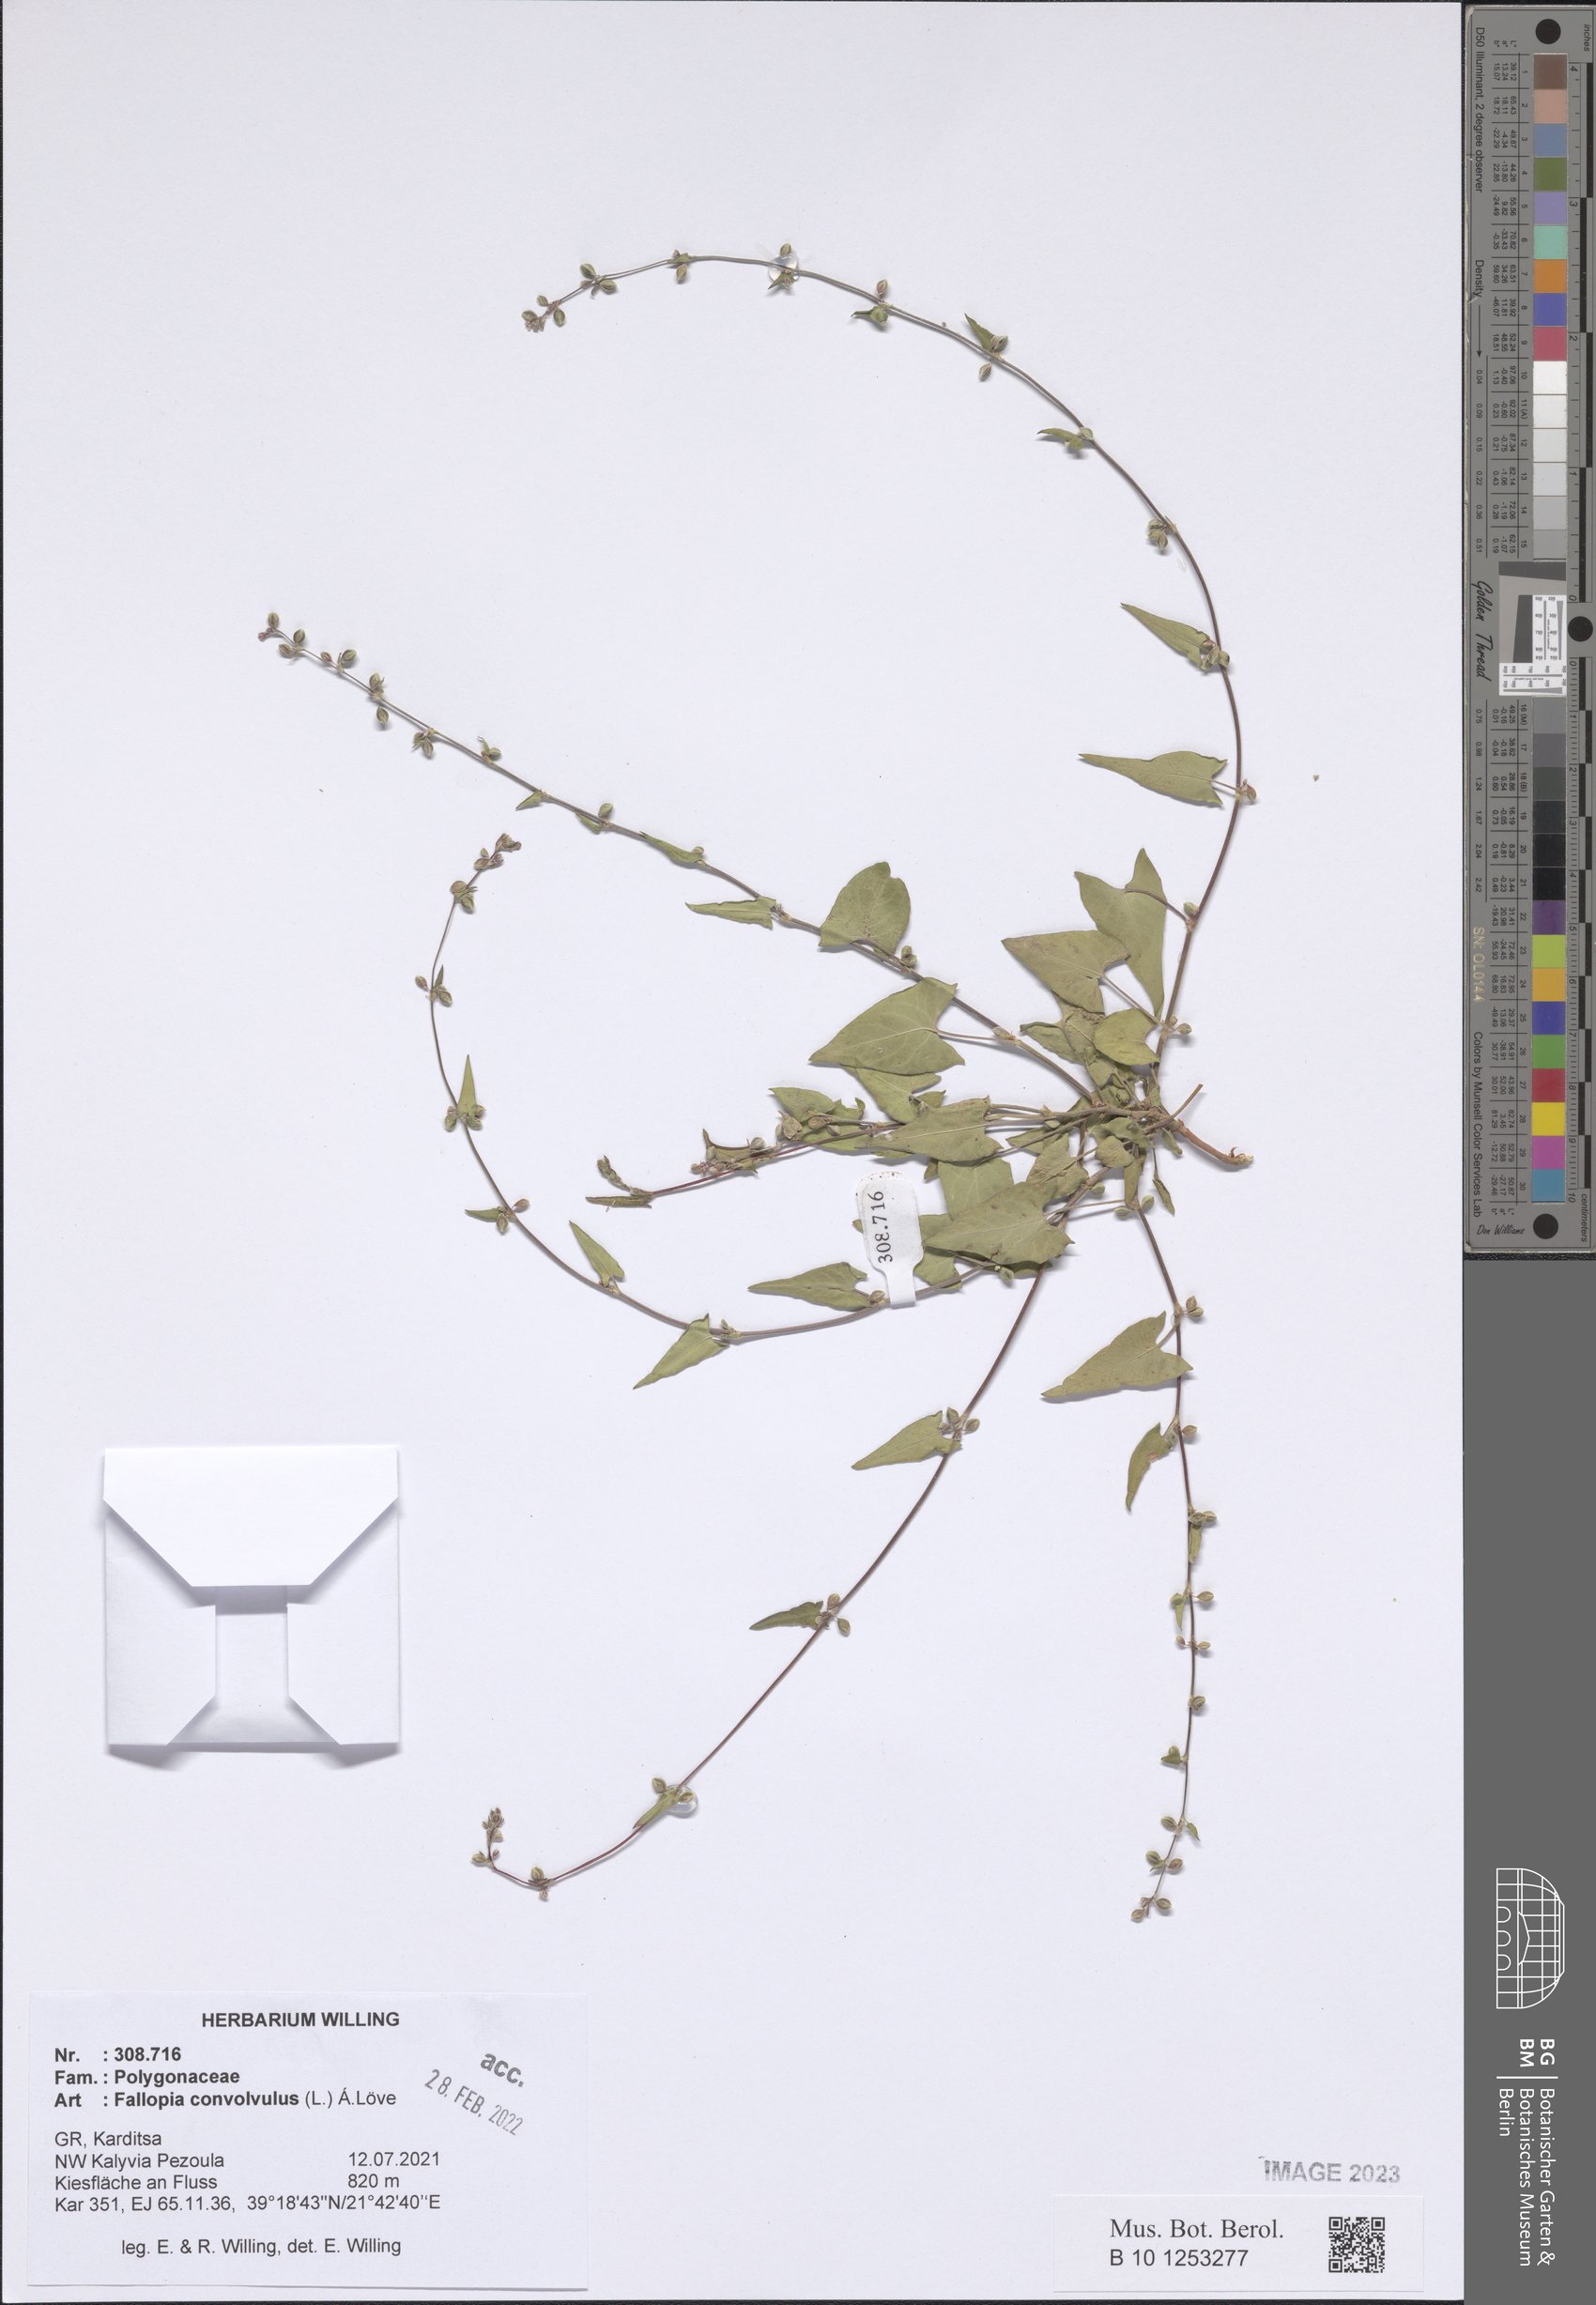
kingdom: Plantae
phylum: Tracheophyta
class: Magnoliopsida
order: Caryophyllales
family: Polygonaceae
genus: Fallopia
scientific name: Fallopia convolvulus
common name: Black bindweed
